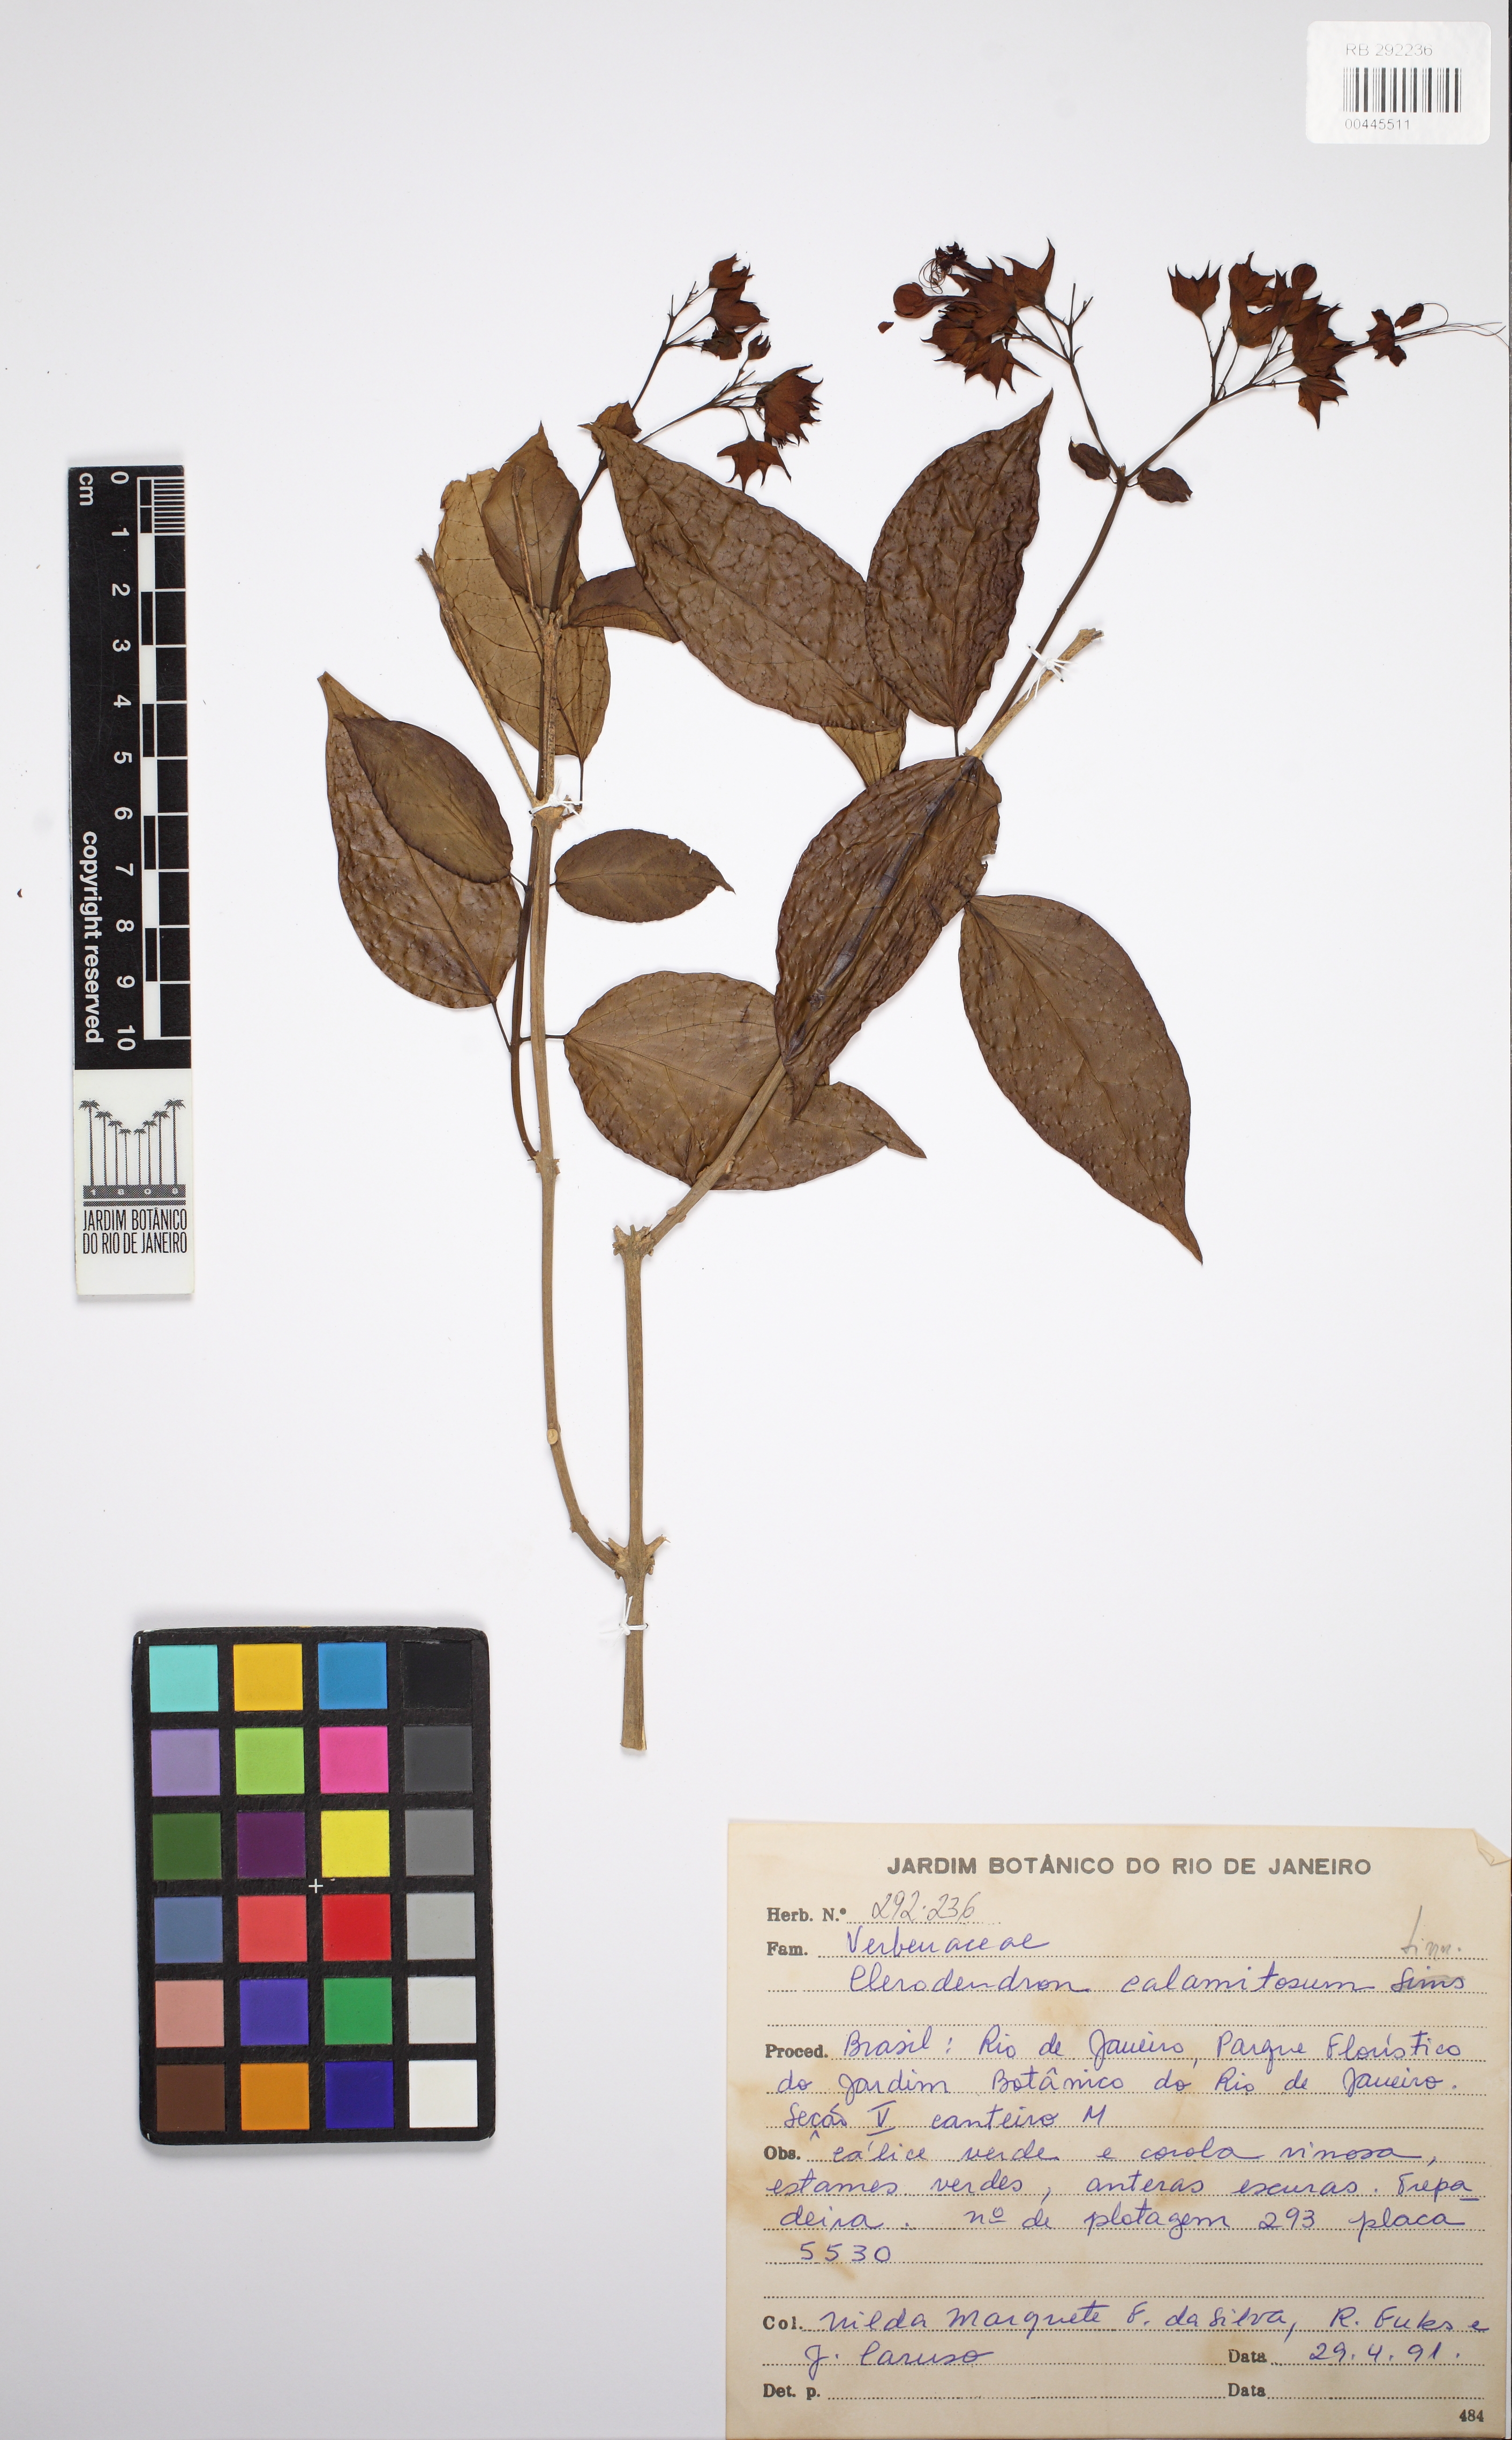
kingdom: Plantae
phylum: Tracheophyta
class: Magnoliopsida
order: Lamiales
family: Verbenaceae
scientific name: Verbenaceae
